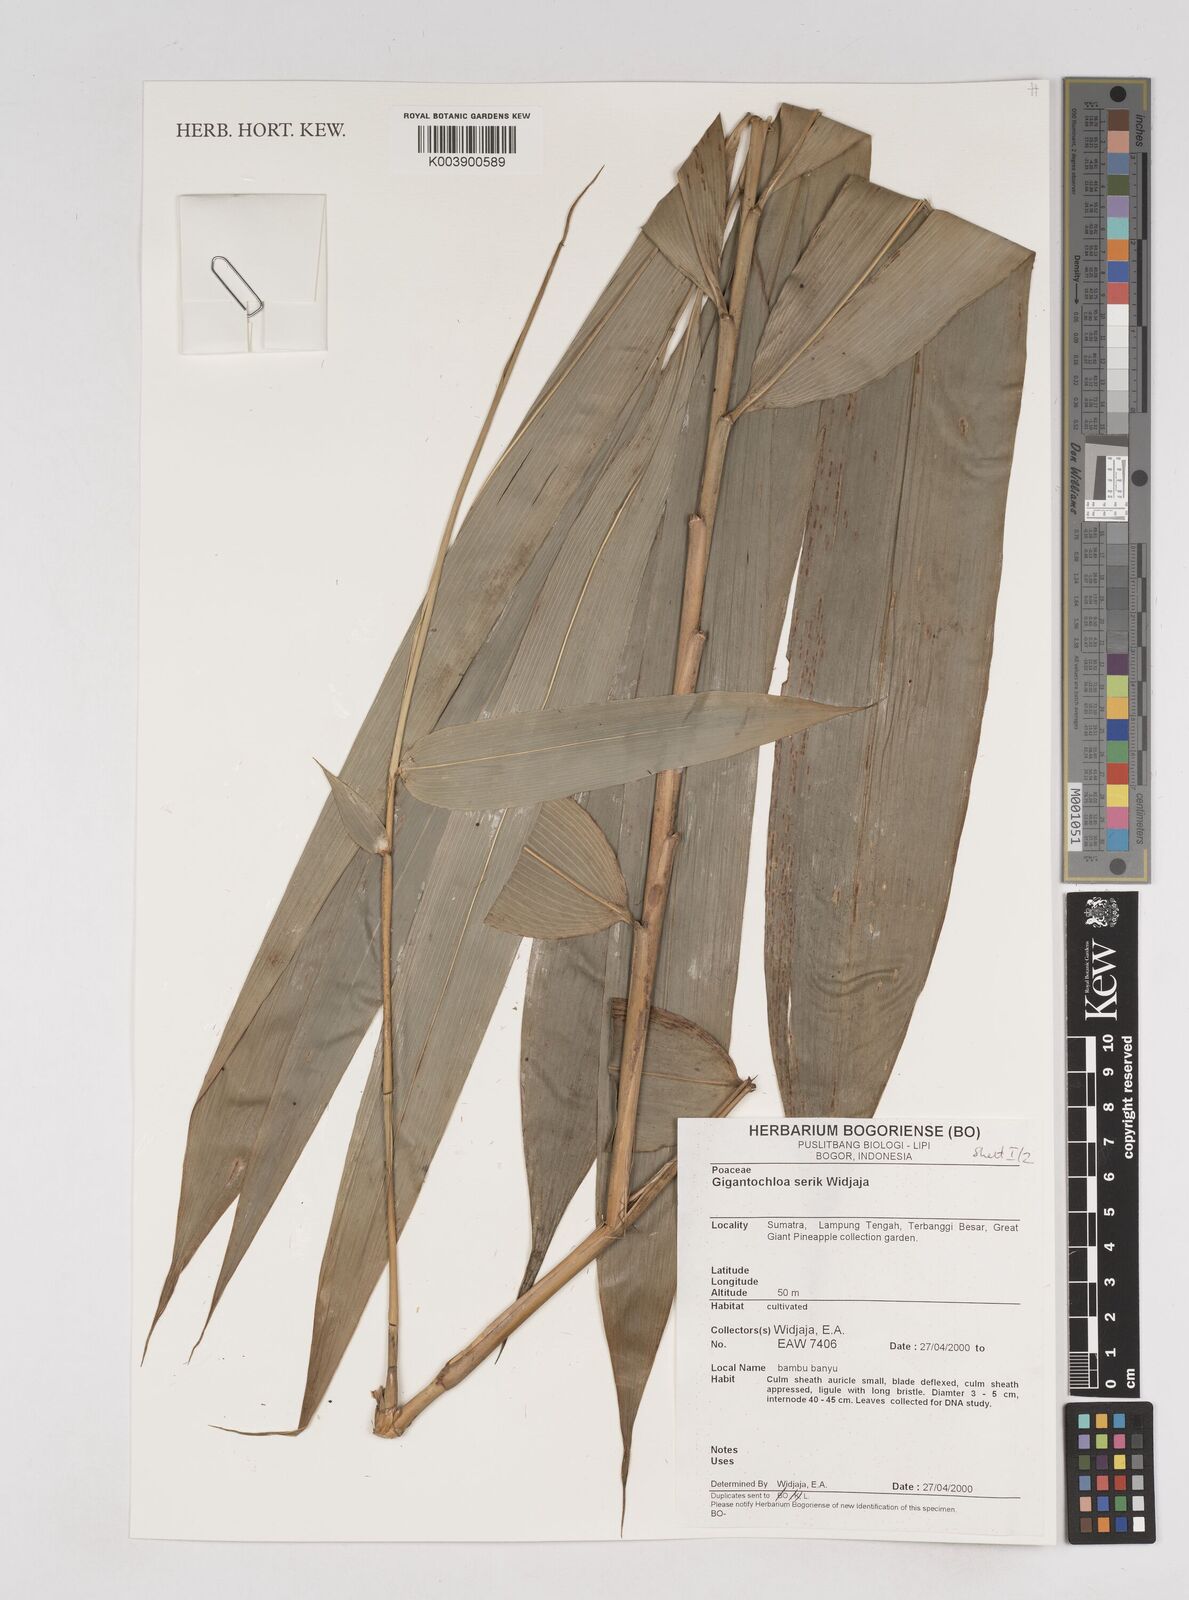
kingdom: Plantae
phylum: Tracheophyta
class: Liliopsida
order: Poales
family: Poaceae
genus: Gigantochloa
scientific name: Gigantochloa serik
